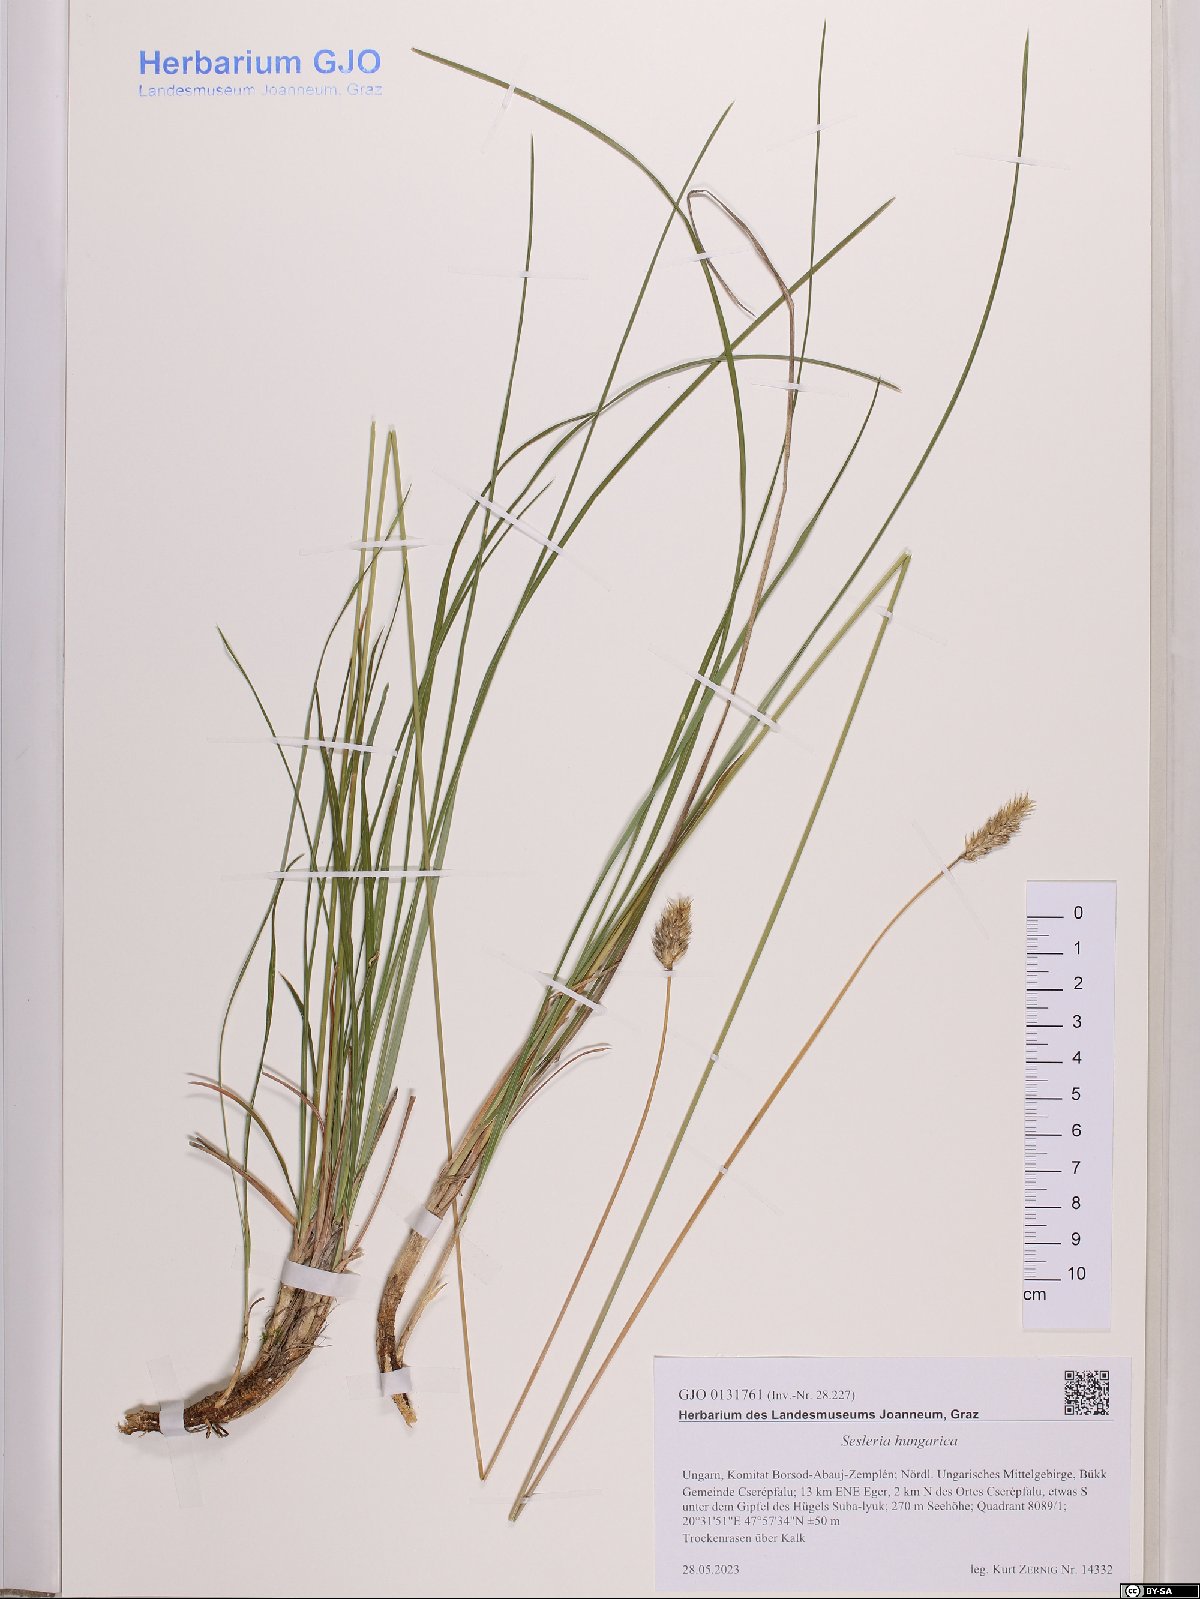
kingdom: Plantae
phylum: Tracheophyta
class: Liliopsida
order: Poales
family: Poaceae
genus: Sesleria
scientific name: Sesleria heufleriana
